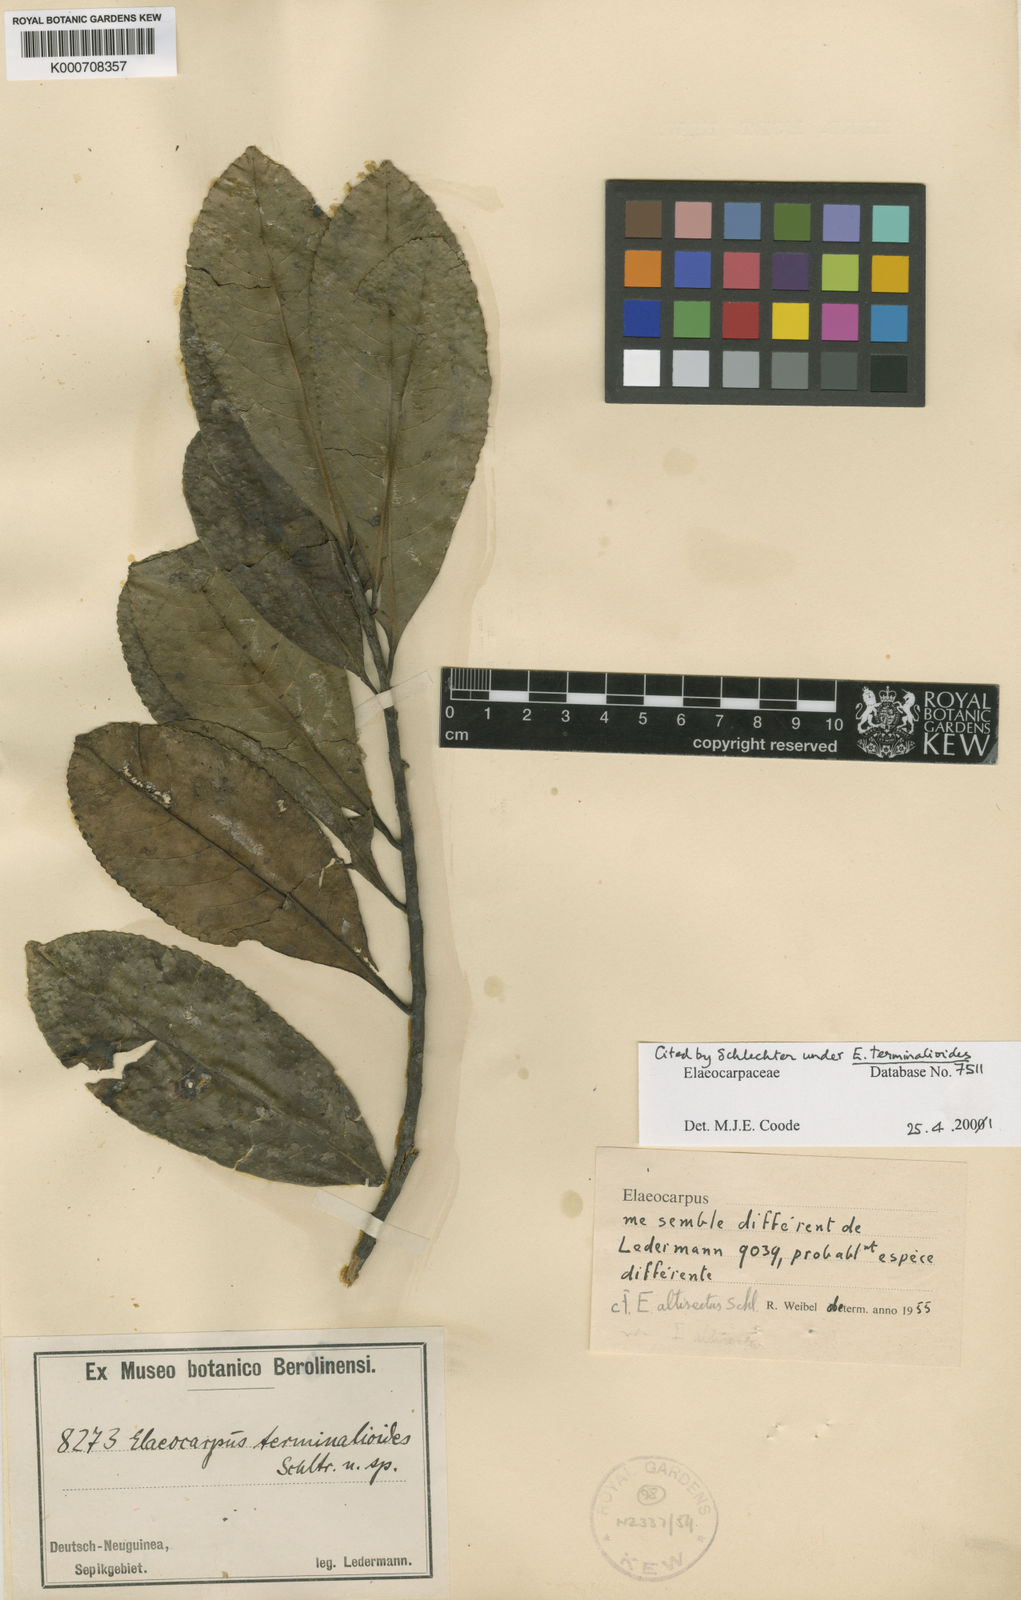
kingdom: Plantae
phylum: Tracheophyta
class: Magnoliopsida
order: Oxalidales
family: Elaeocarpaceae
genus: Elaeocarpus
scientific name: Elaeocarpus altisectus
